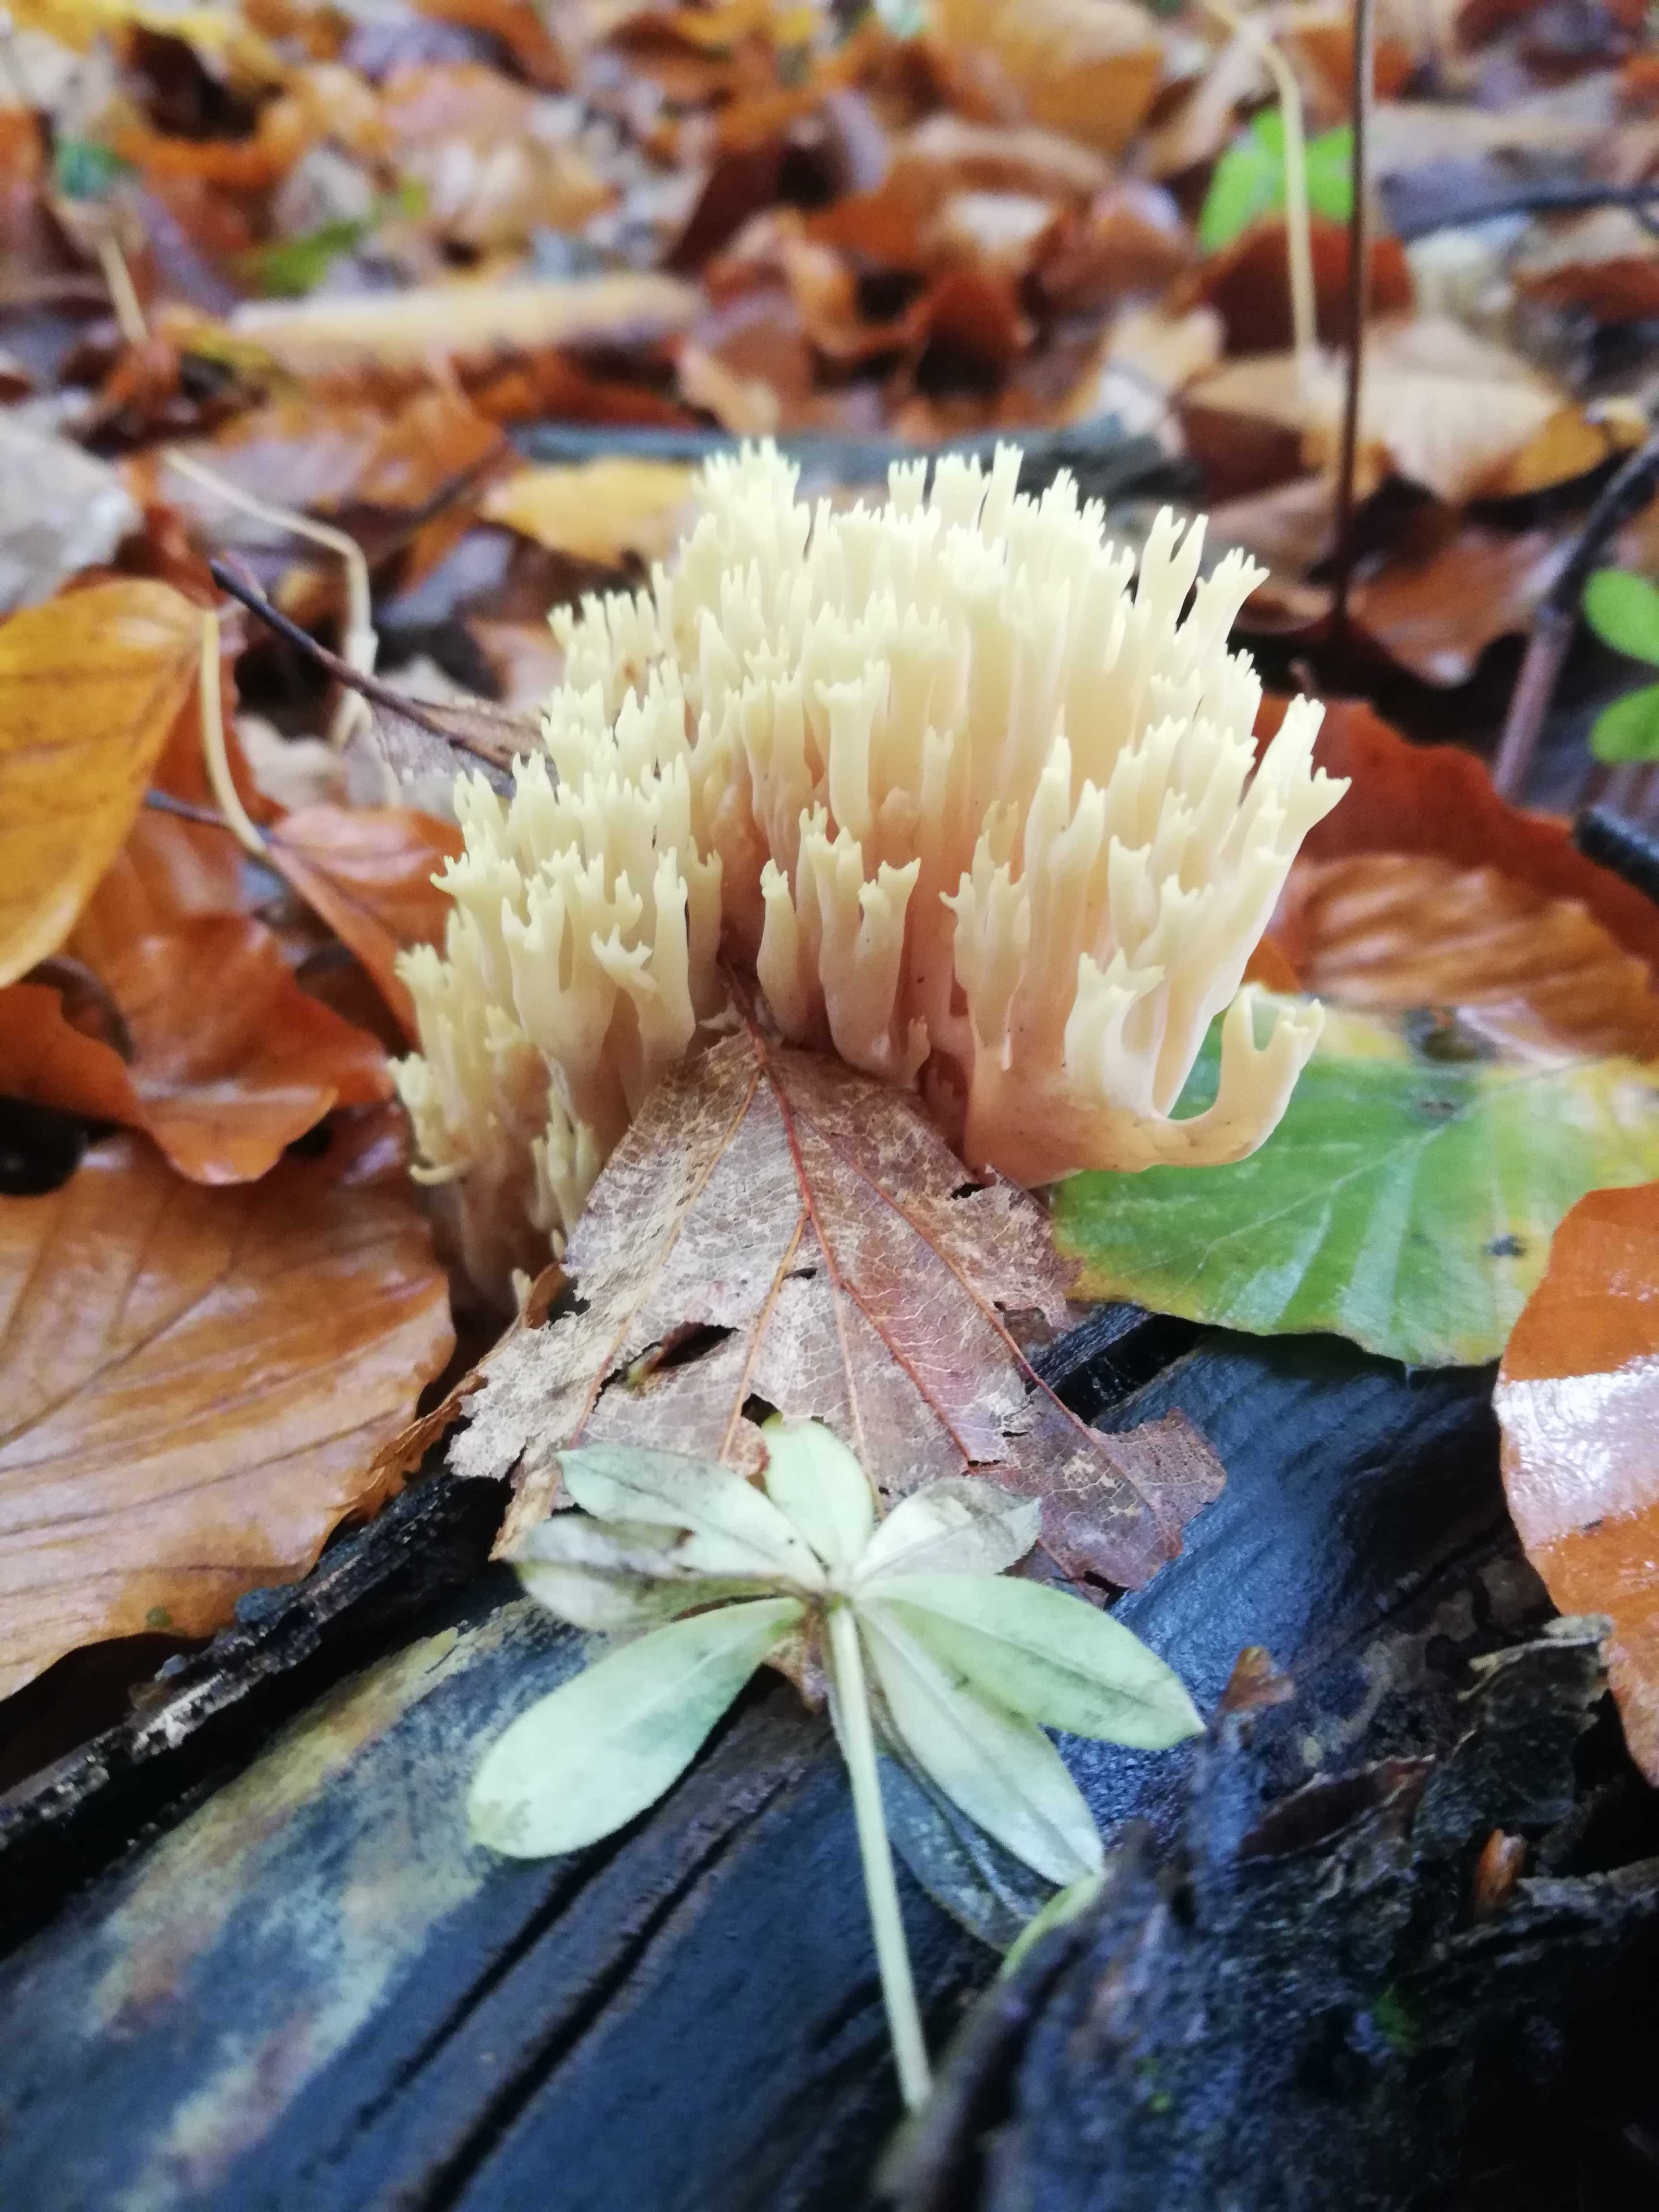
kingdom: Fungi
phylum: Basidiomycota
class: Agaricomycetes
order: Gomphales
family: Gomphaceae
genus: Ramaria
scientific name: Ramaria stricta
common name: rank koralsvamp
